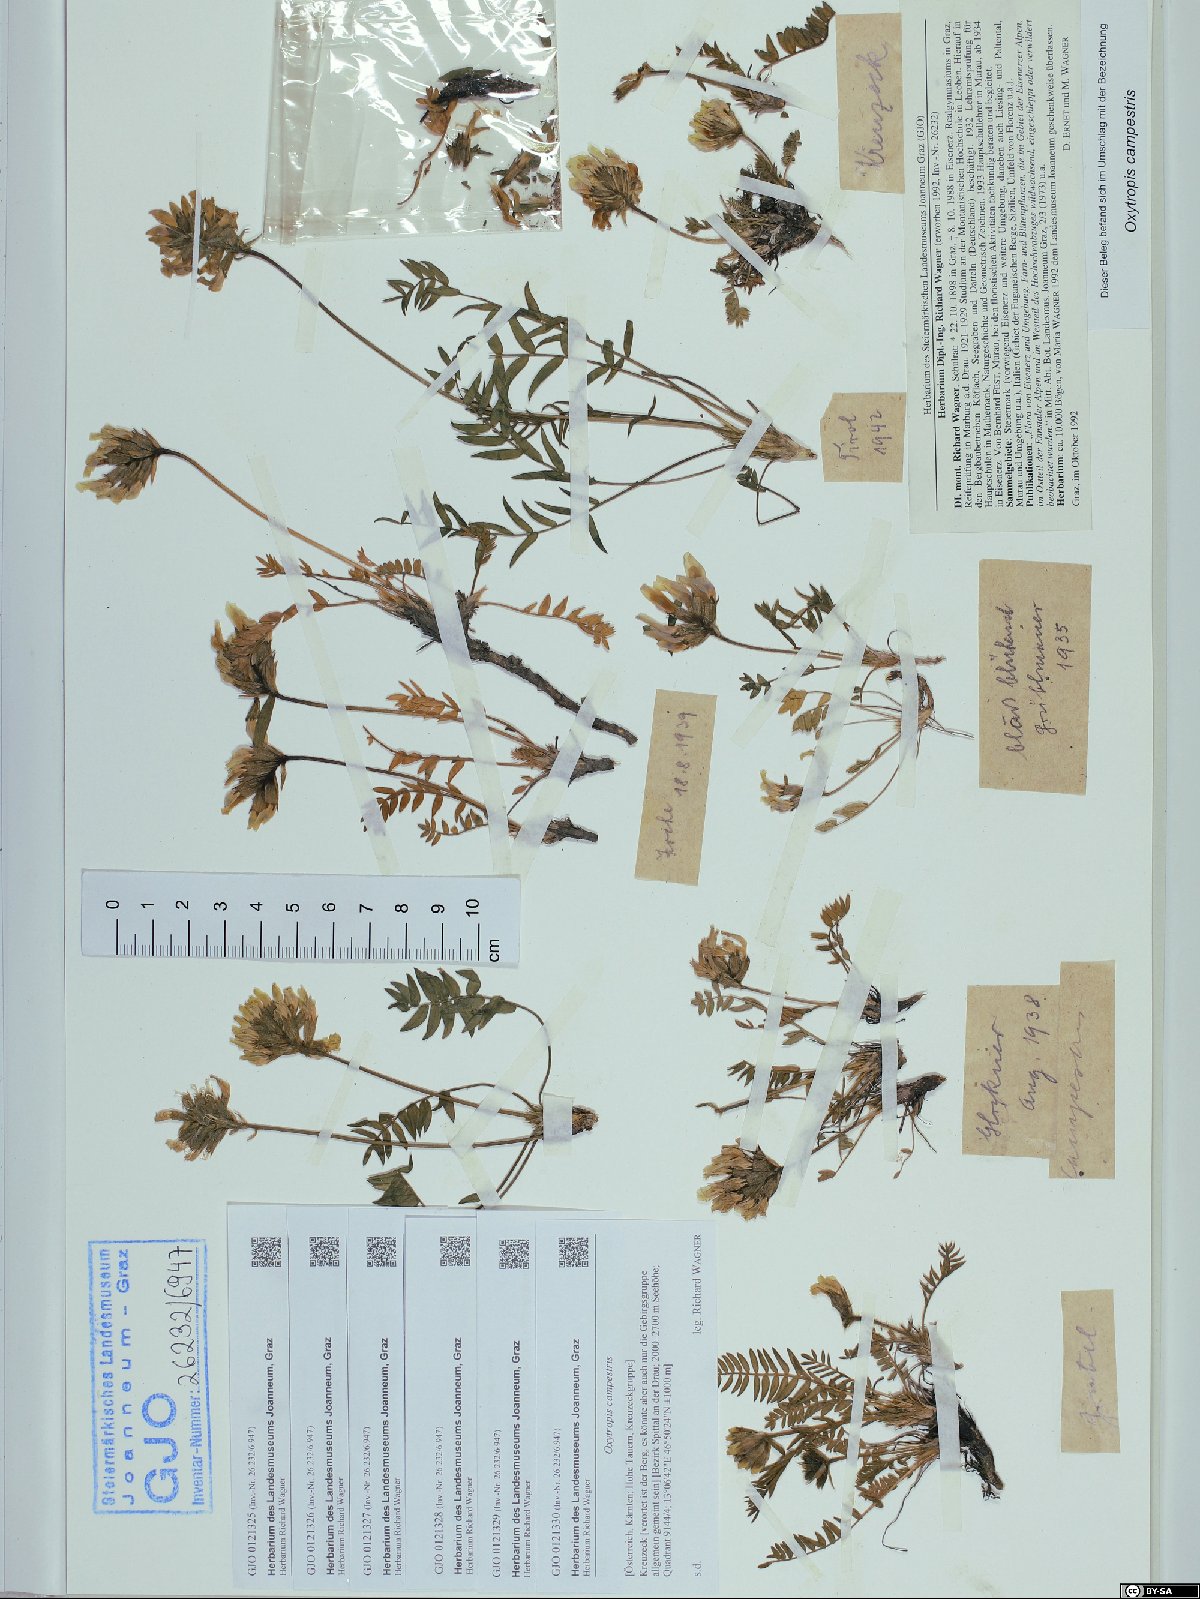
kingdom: Plantae
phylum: Tracheophyta
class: Magnoliopsida
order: Fabales
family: Fabaceae
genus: Oxytropis
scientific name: Oxytropis campestris
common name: Field locoweed
